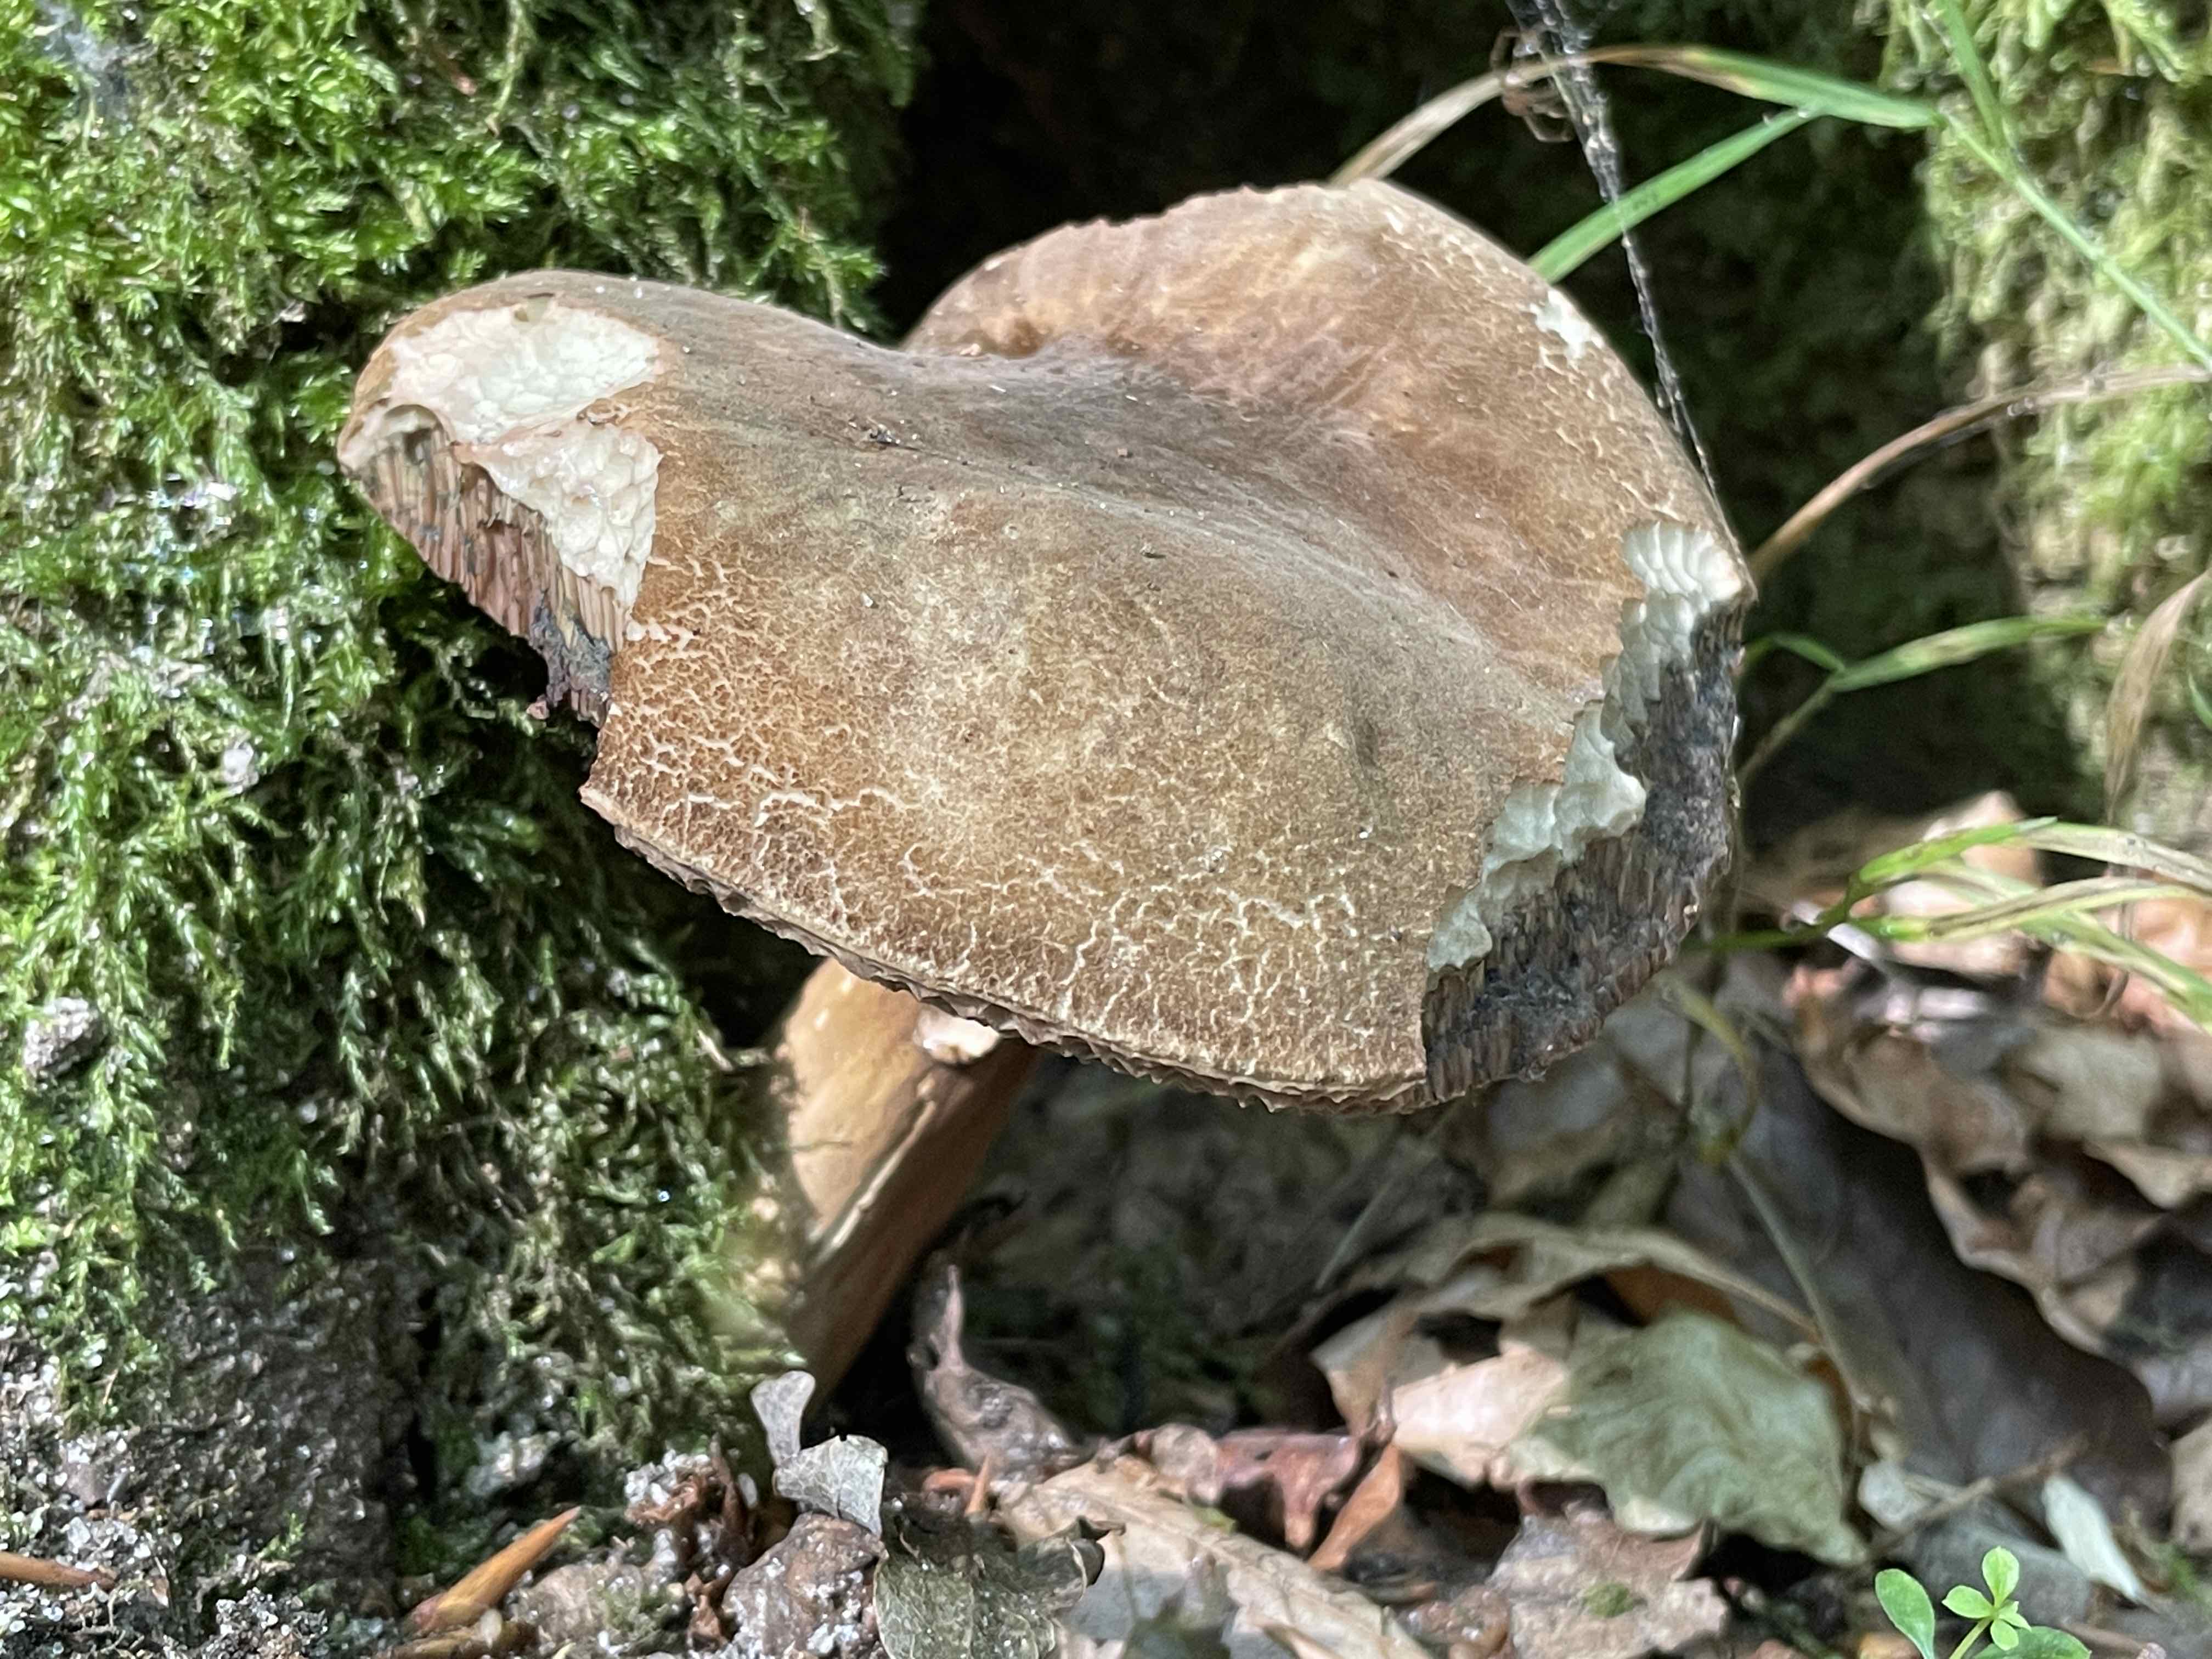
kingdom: Fungi
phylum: Basidiomycota
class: Agaricomycetes
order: Boletales
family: Boletaceae
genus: Porphyrellus
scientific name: Porphyrellus porphyrosporus
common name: sodrørhat
